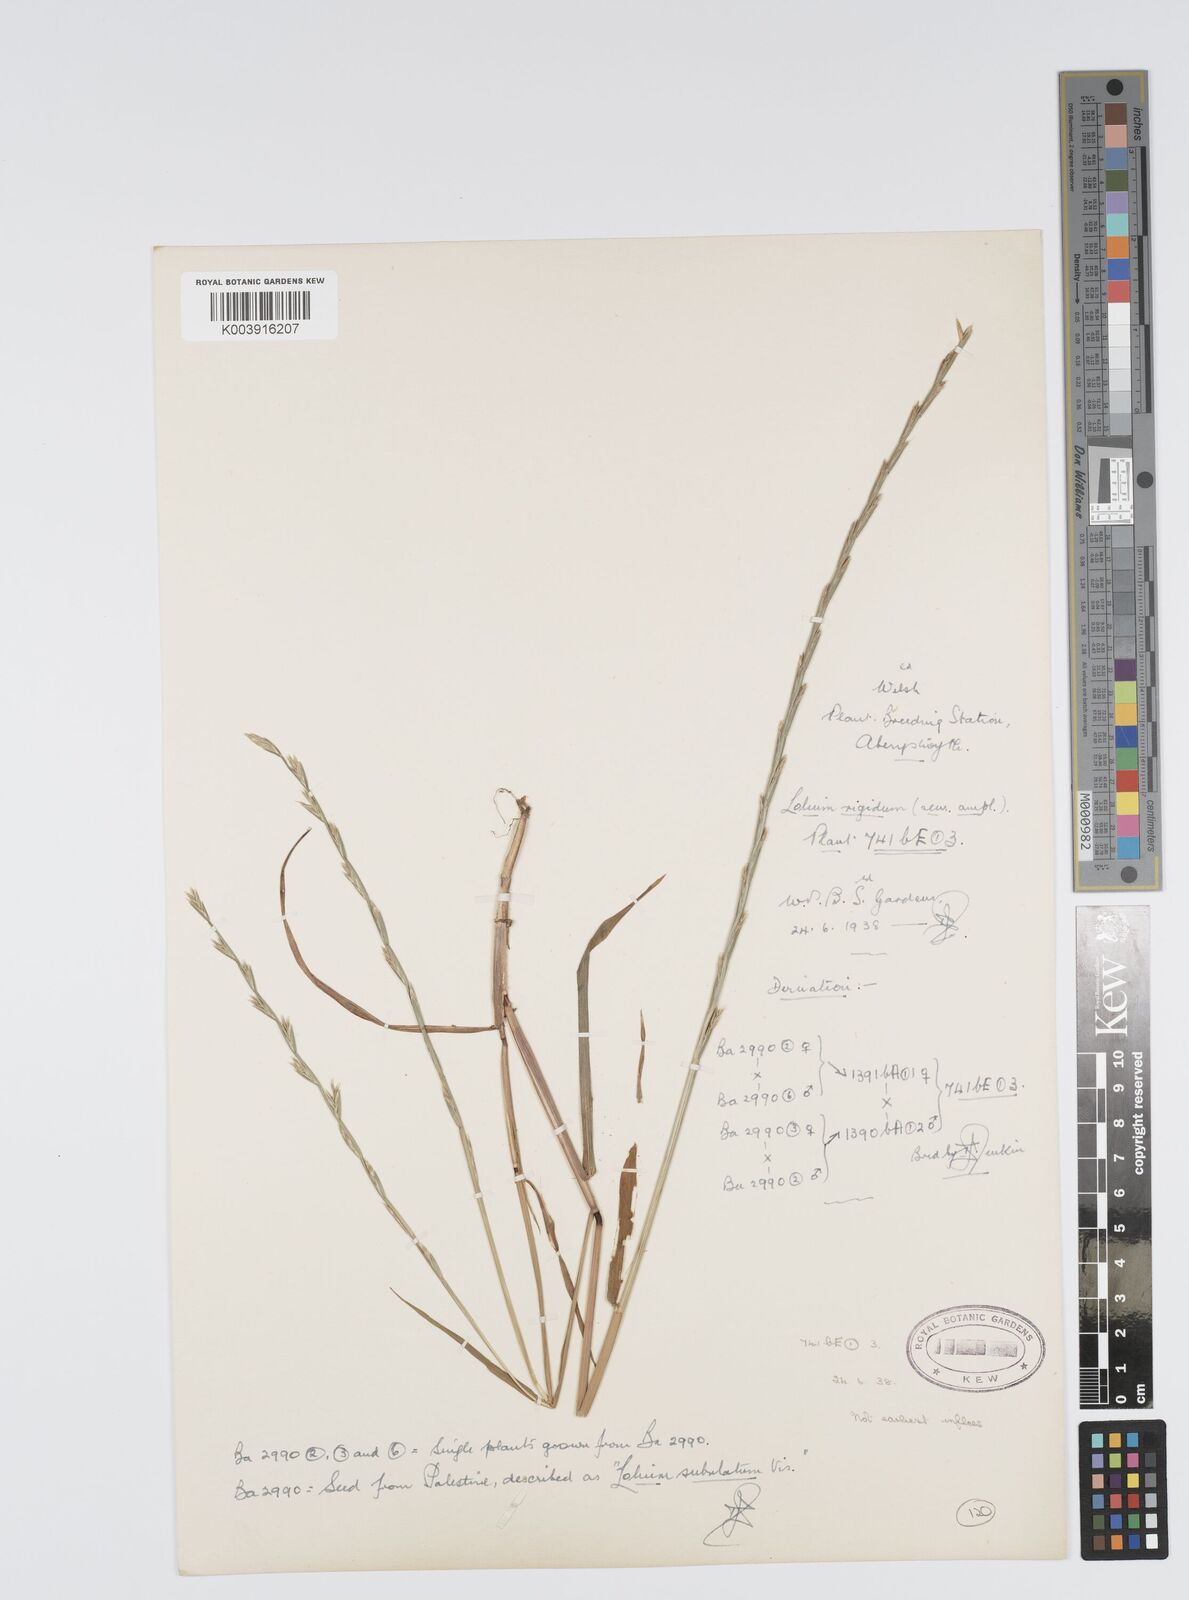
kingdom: Plantae
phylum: Tracheophyta
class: Liliopsida
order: Poales
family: Poaceae
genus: Lolium
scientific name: Lolium rigidum
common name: Wimmera ryegrass
